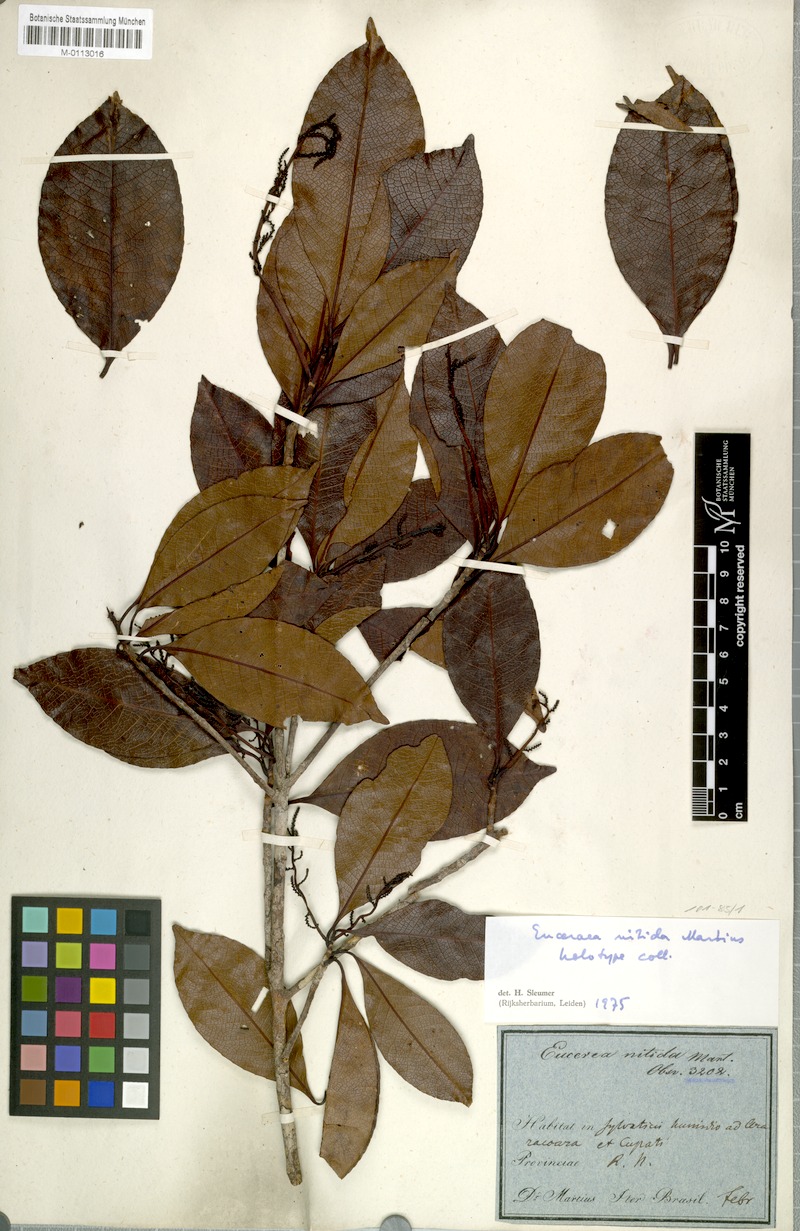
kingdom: Plantae
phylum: Tracheophyta
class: Magnoliopsida
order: Malpighiales
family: Salicaceae
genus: Casearia
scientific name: Casearia euceraea
